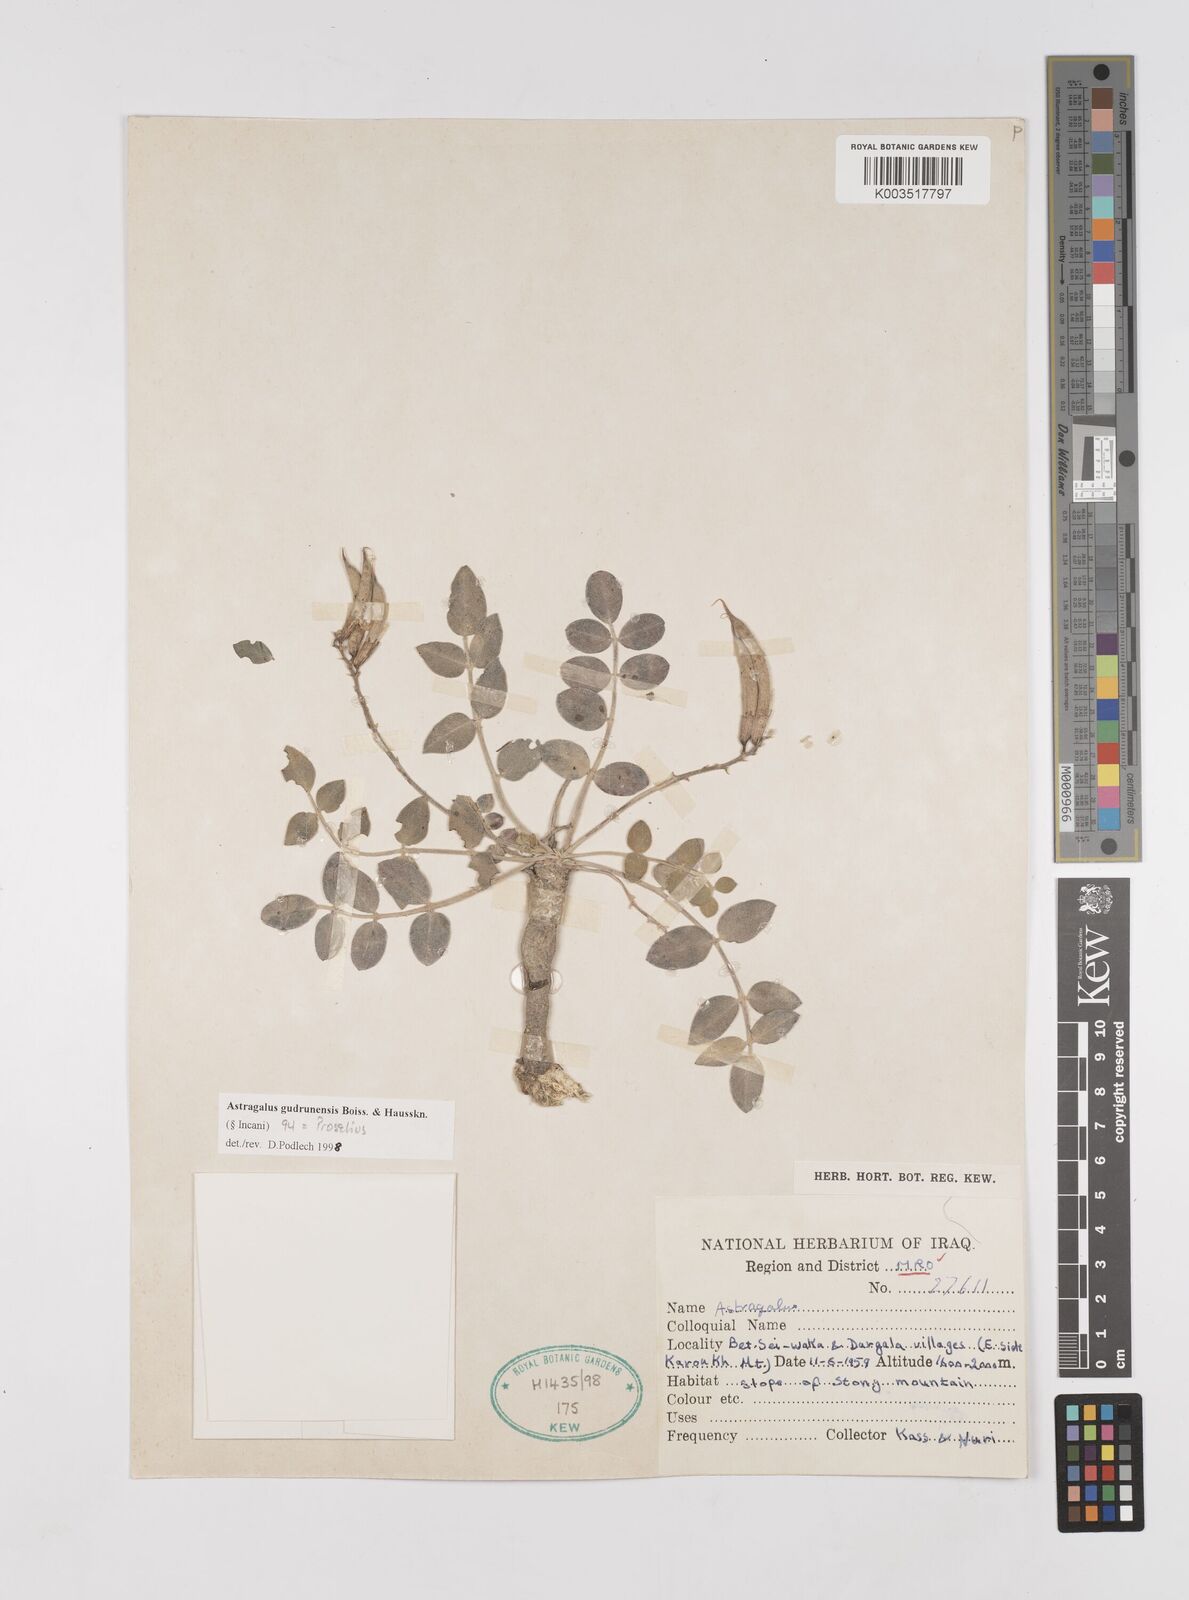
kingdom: Plantae
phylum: Tracheophyta
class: Magnoliopsida
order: Fabales
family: Fabaceae
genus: Astragalus
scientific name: Astragalus gudrunensis
